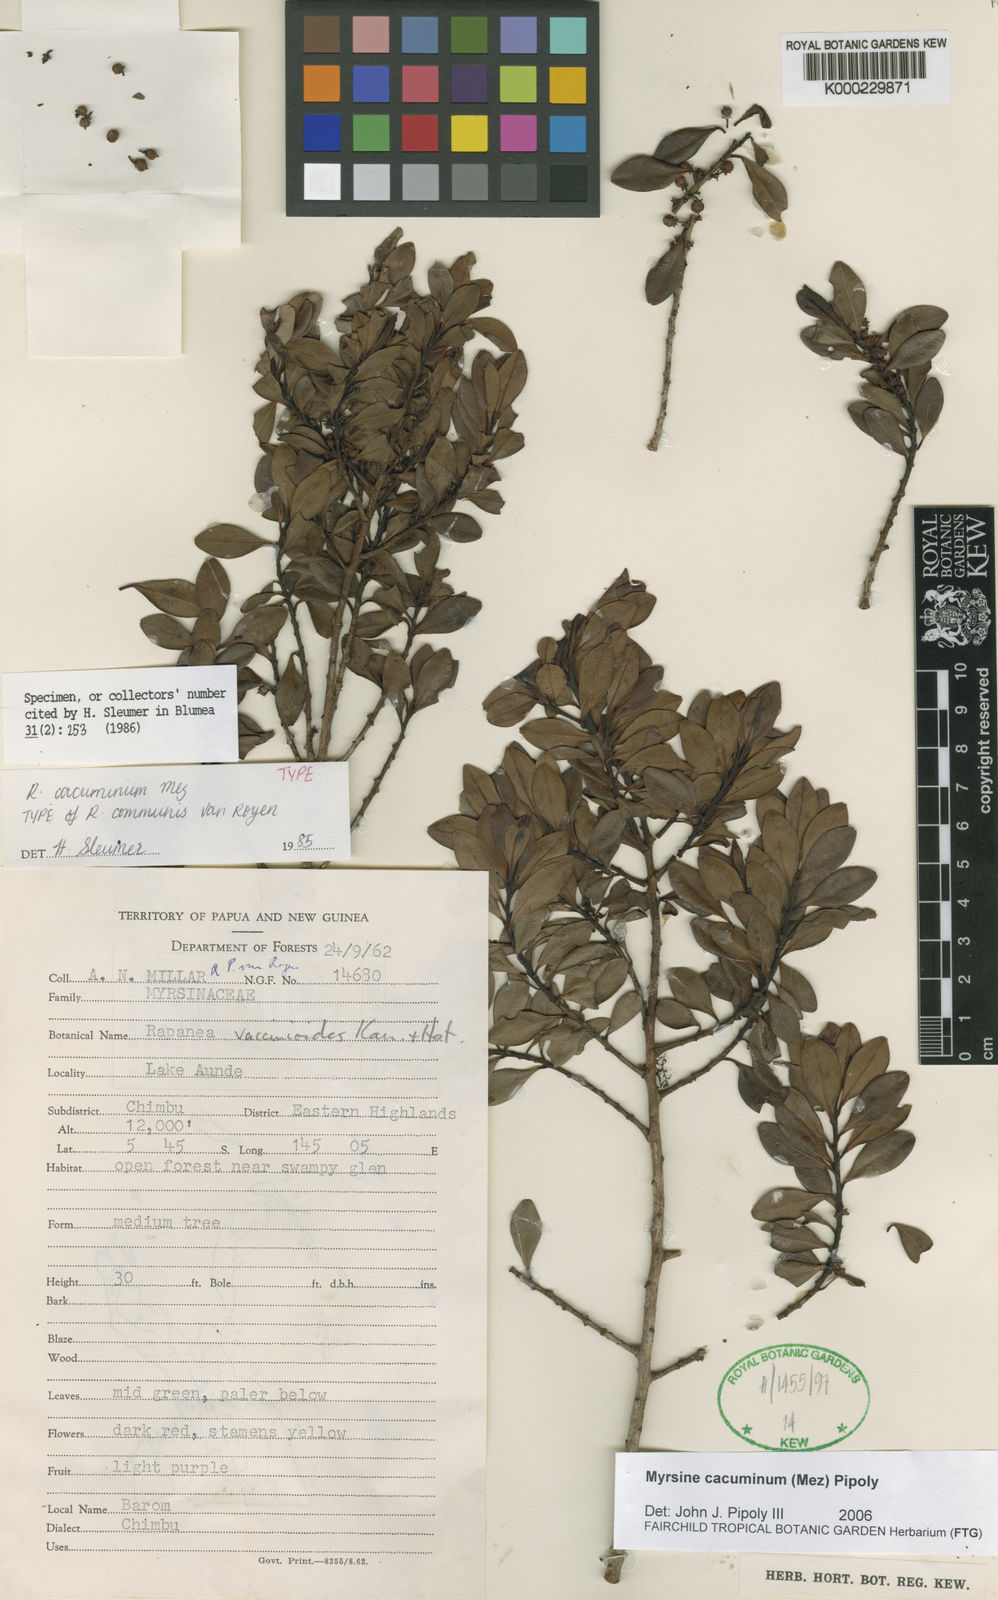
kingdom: Plantae
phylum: Tracheophyta
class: Magnoliopsida
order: Ericales
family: Primulaceae
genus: Myrsine
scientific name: Myrsine cacuminum
